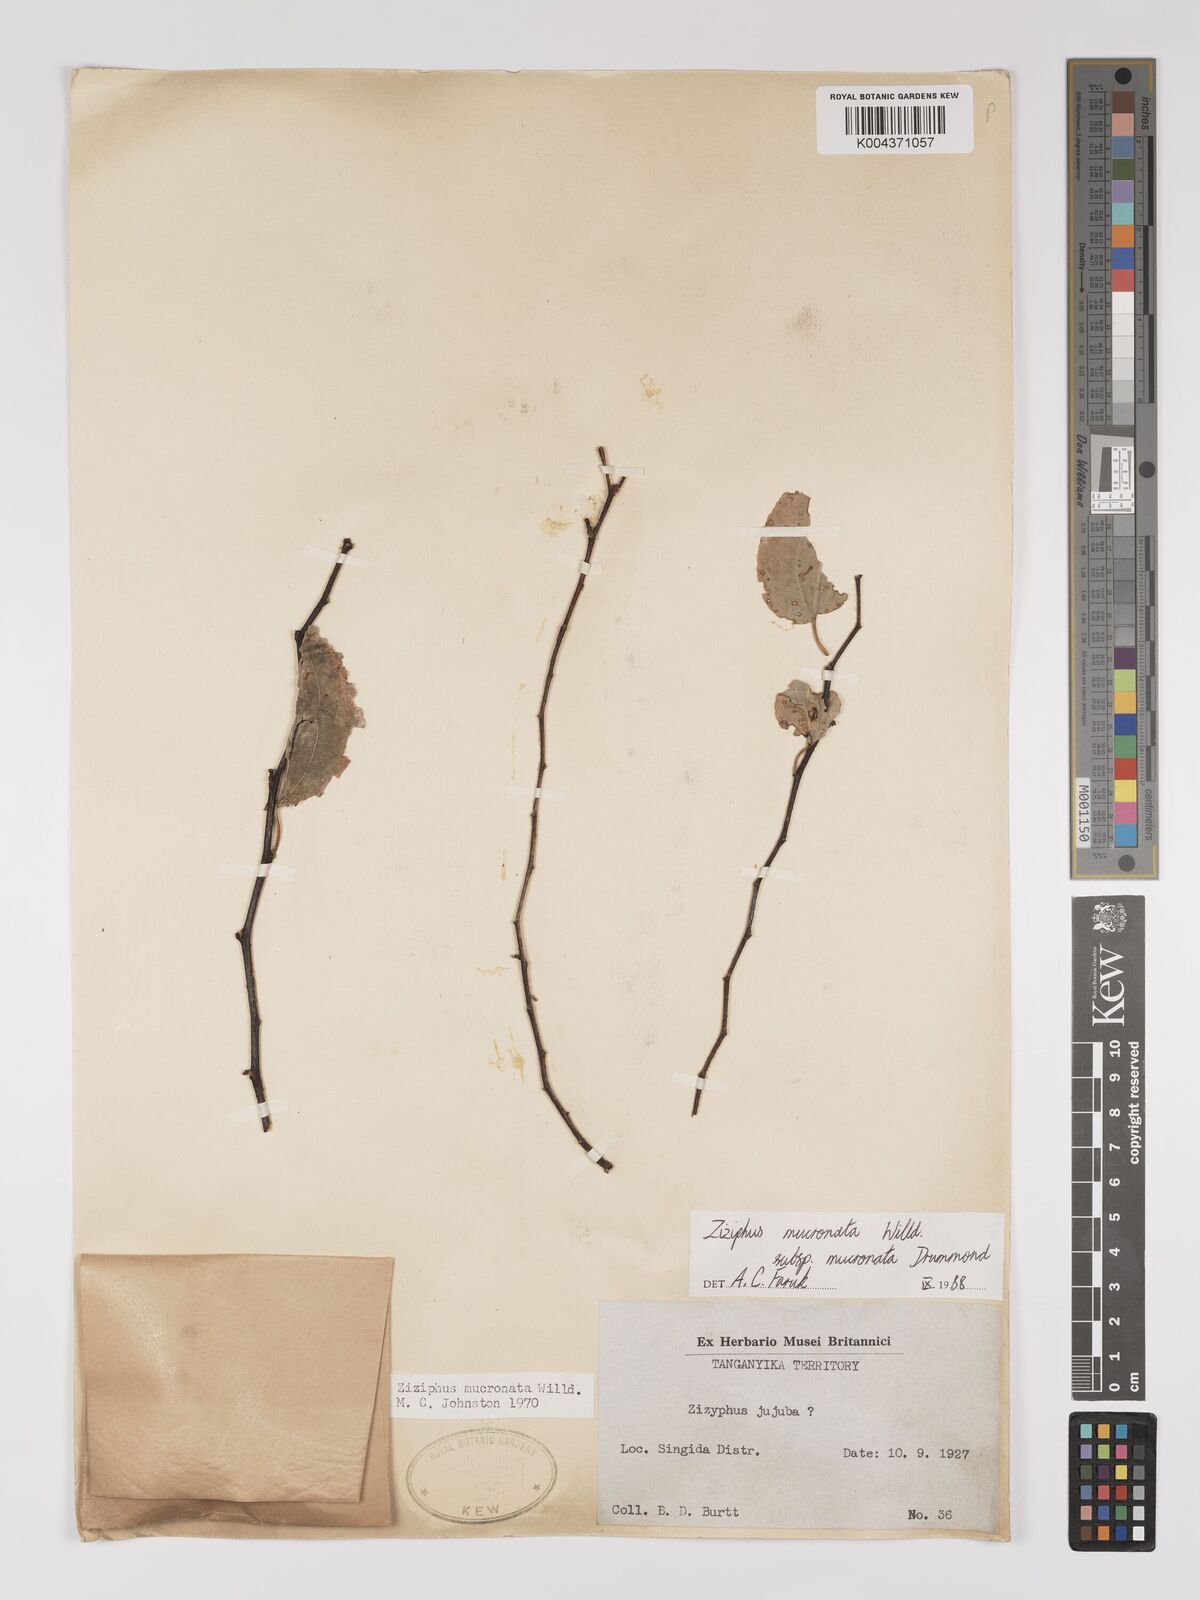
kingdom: Plantae
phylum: Tracheophyta
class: Magnoliopsida
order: Rosales
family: Rhamnaceae
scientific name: Rhamnaceae
